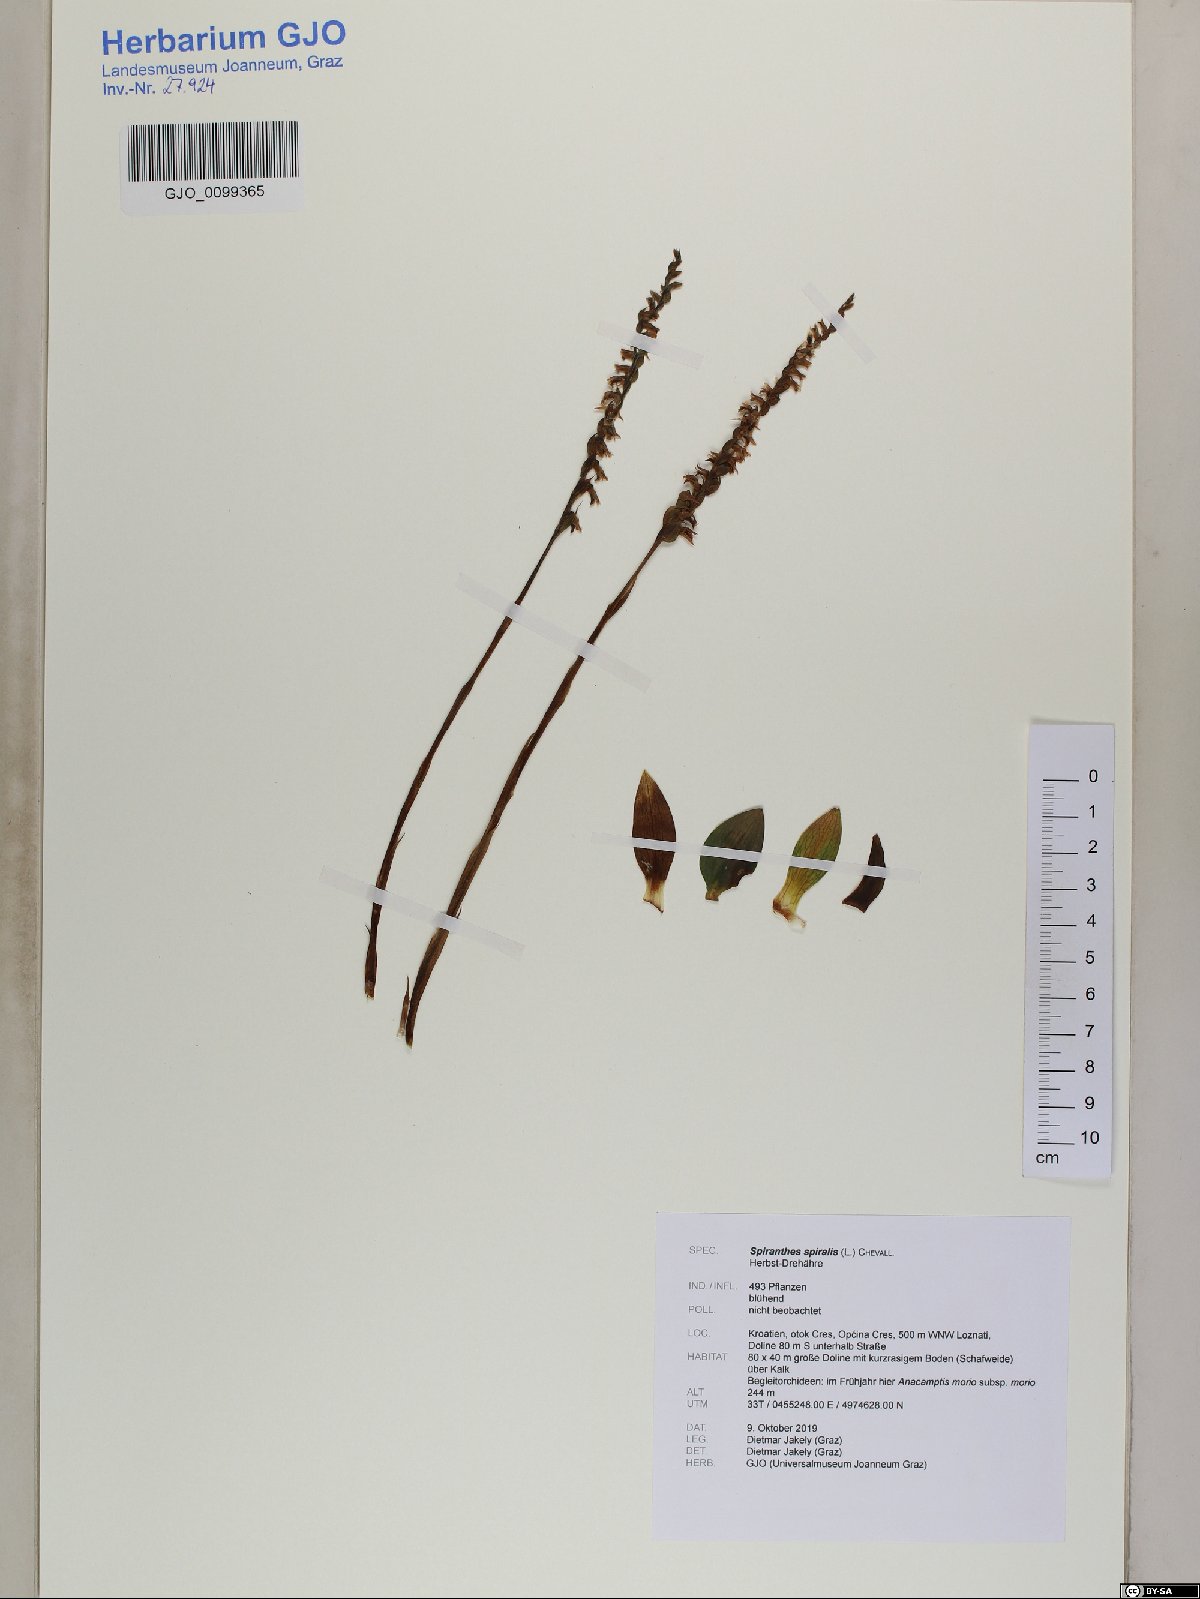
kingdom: Plantae
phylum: Tracheophyta
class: Liliopsida
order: Asparagales
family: Orchidaceae
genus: Spiranthes
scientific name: Spiranthes spiralis
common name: Autumn lady's-tresses
